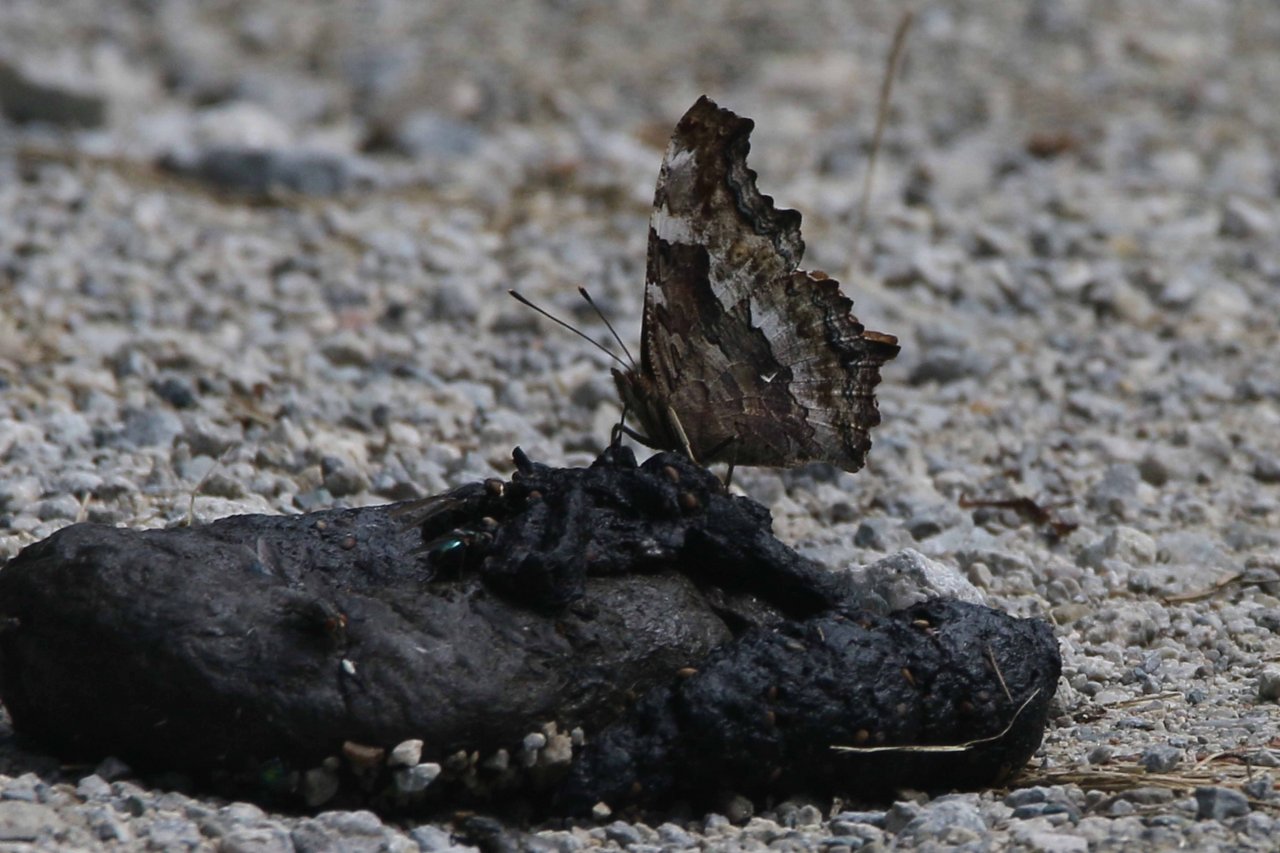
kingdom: Animalia
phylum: Arthropoda
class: Insecta
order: Lepidoptera
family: Nymphalidae
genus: Polygonia
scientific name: Polygonia vaualbum
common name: Compton Tortoiseshell
